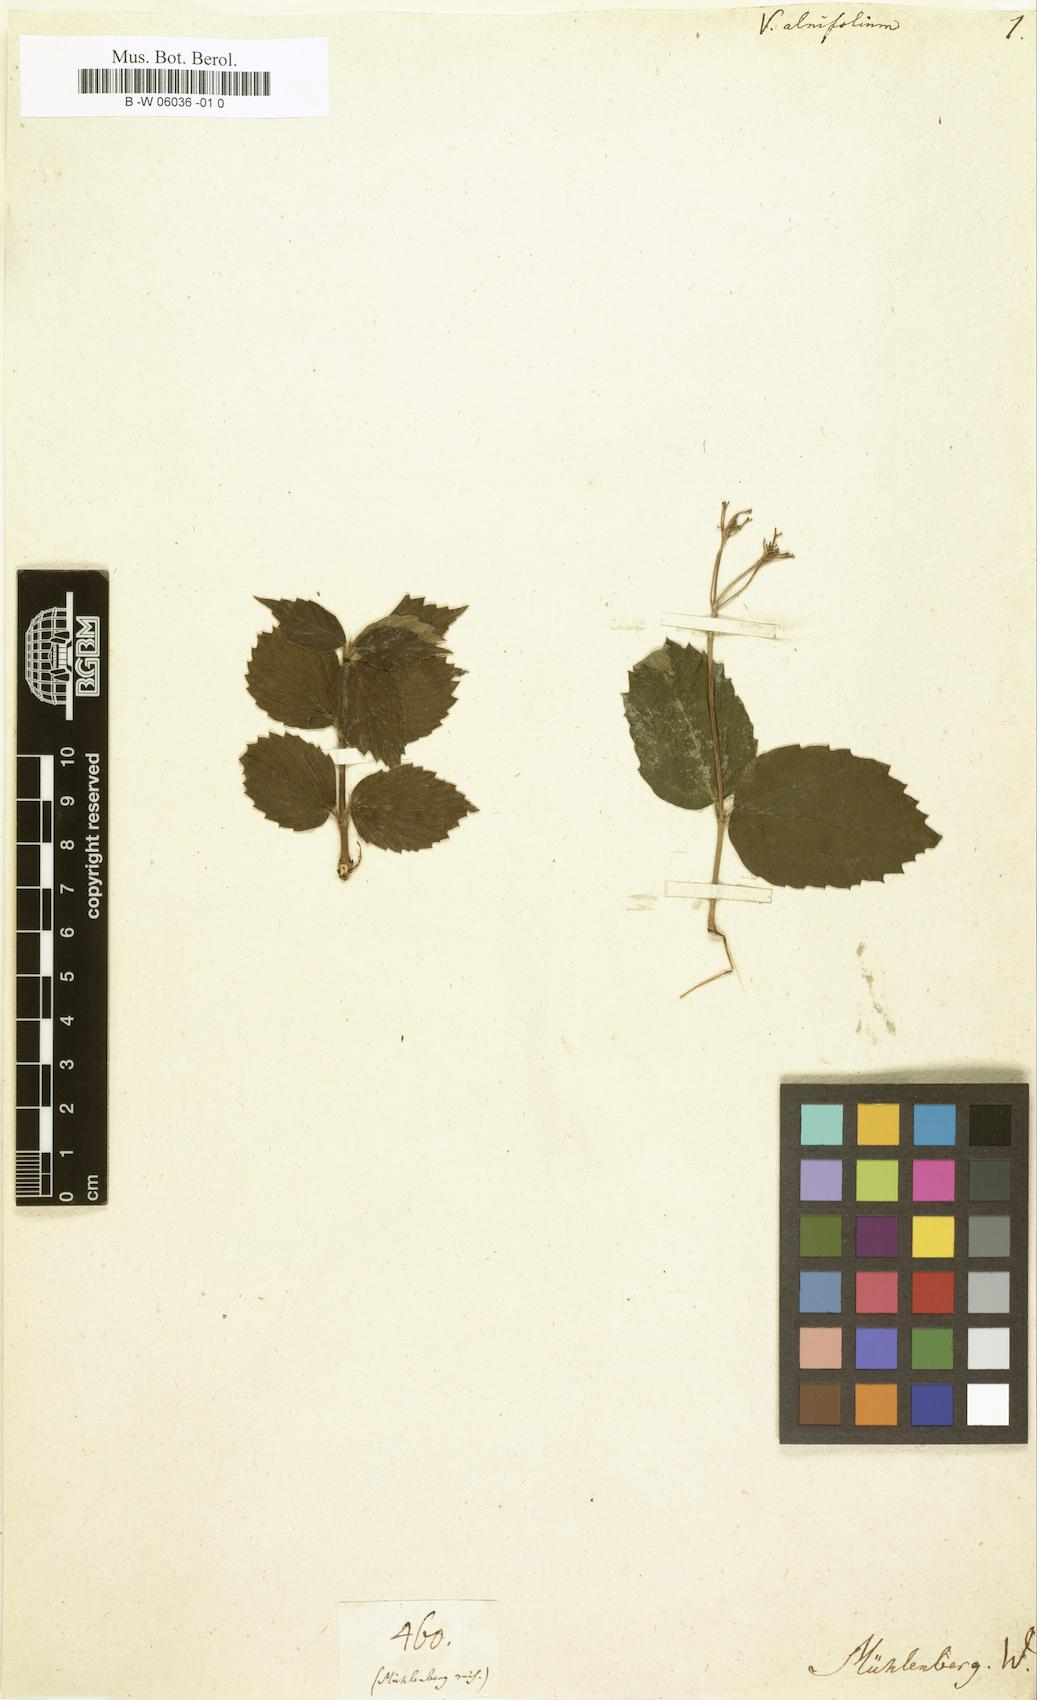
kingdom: Plantae
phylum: Tracheophyta
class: Magnoliopsida
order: Dipsacales
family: Viburnaceae
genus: Viburnum
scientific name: Viburnum lantanoides
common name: Hobblebush
